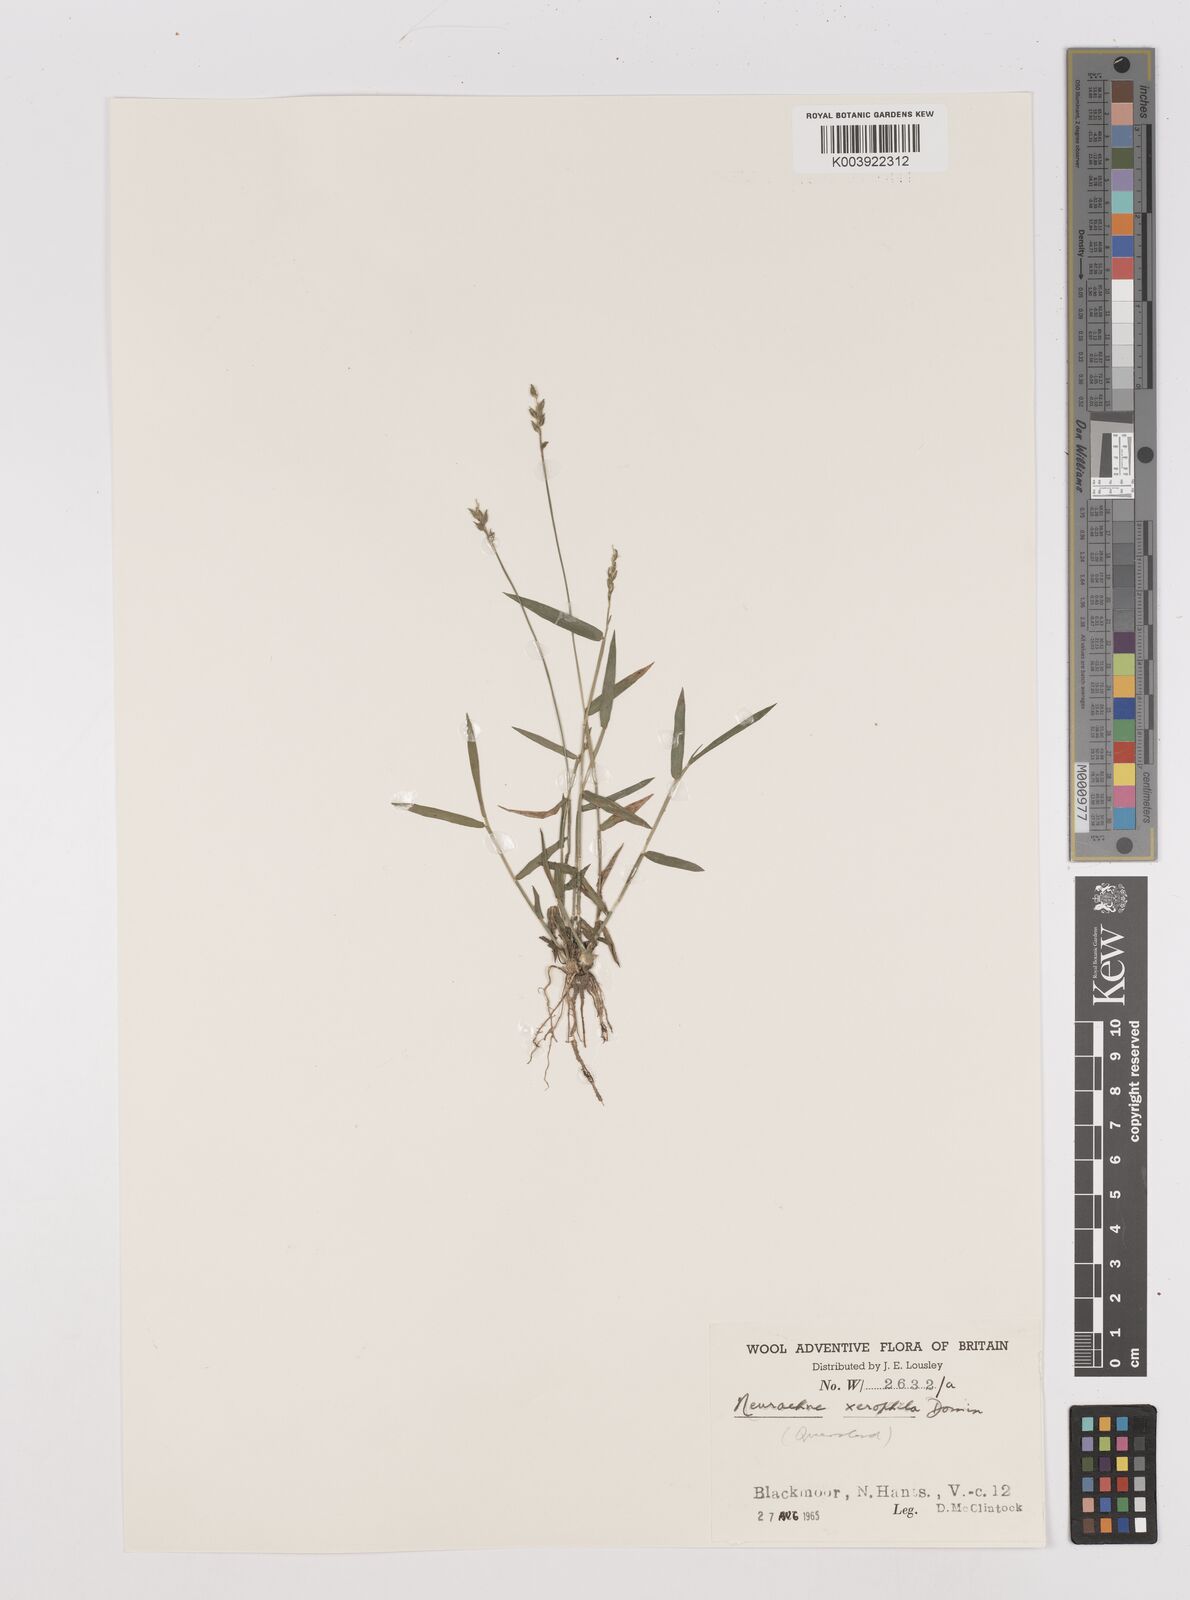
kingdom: Plantae
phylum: Tracheophyta
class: Liliopsida
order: Poales
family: Poaceae
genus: Thyridolepis
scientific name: Thyridolepis xerophila
